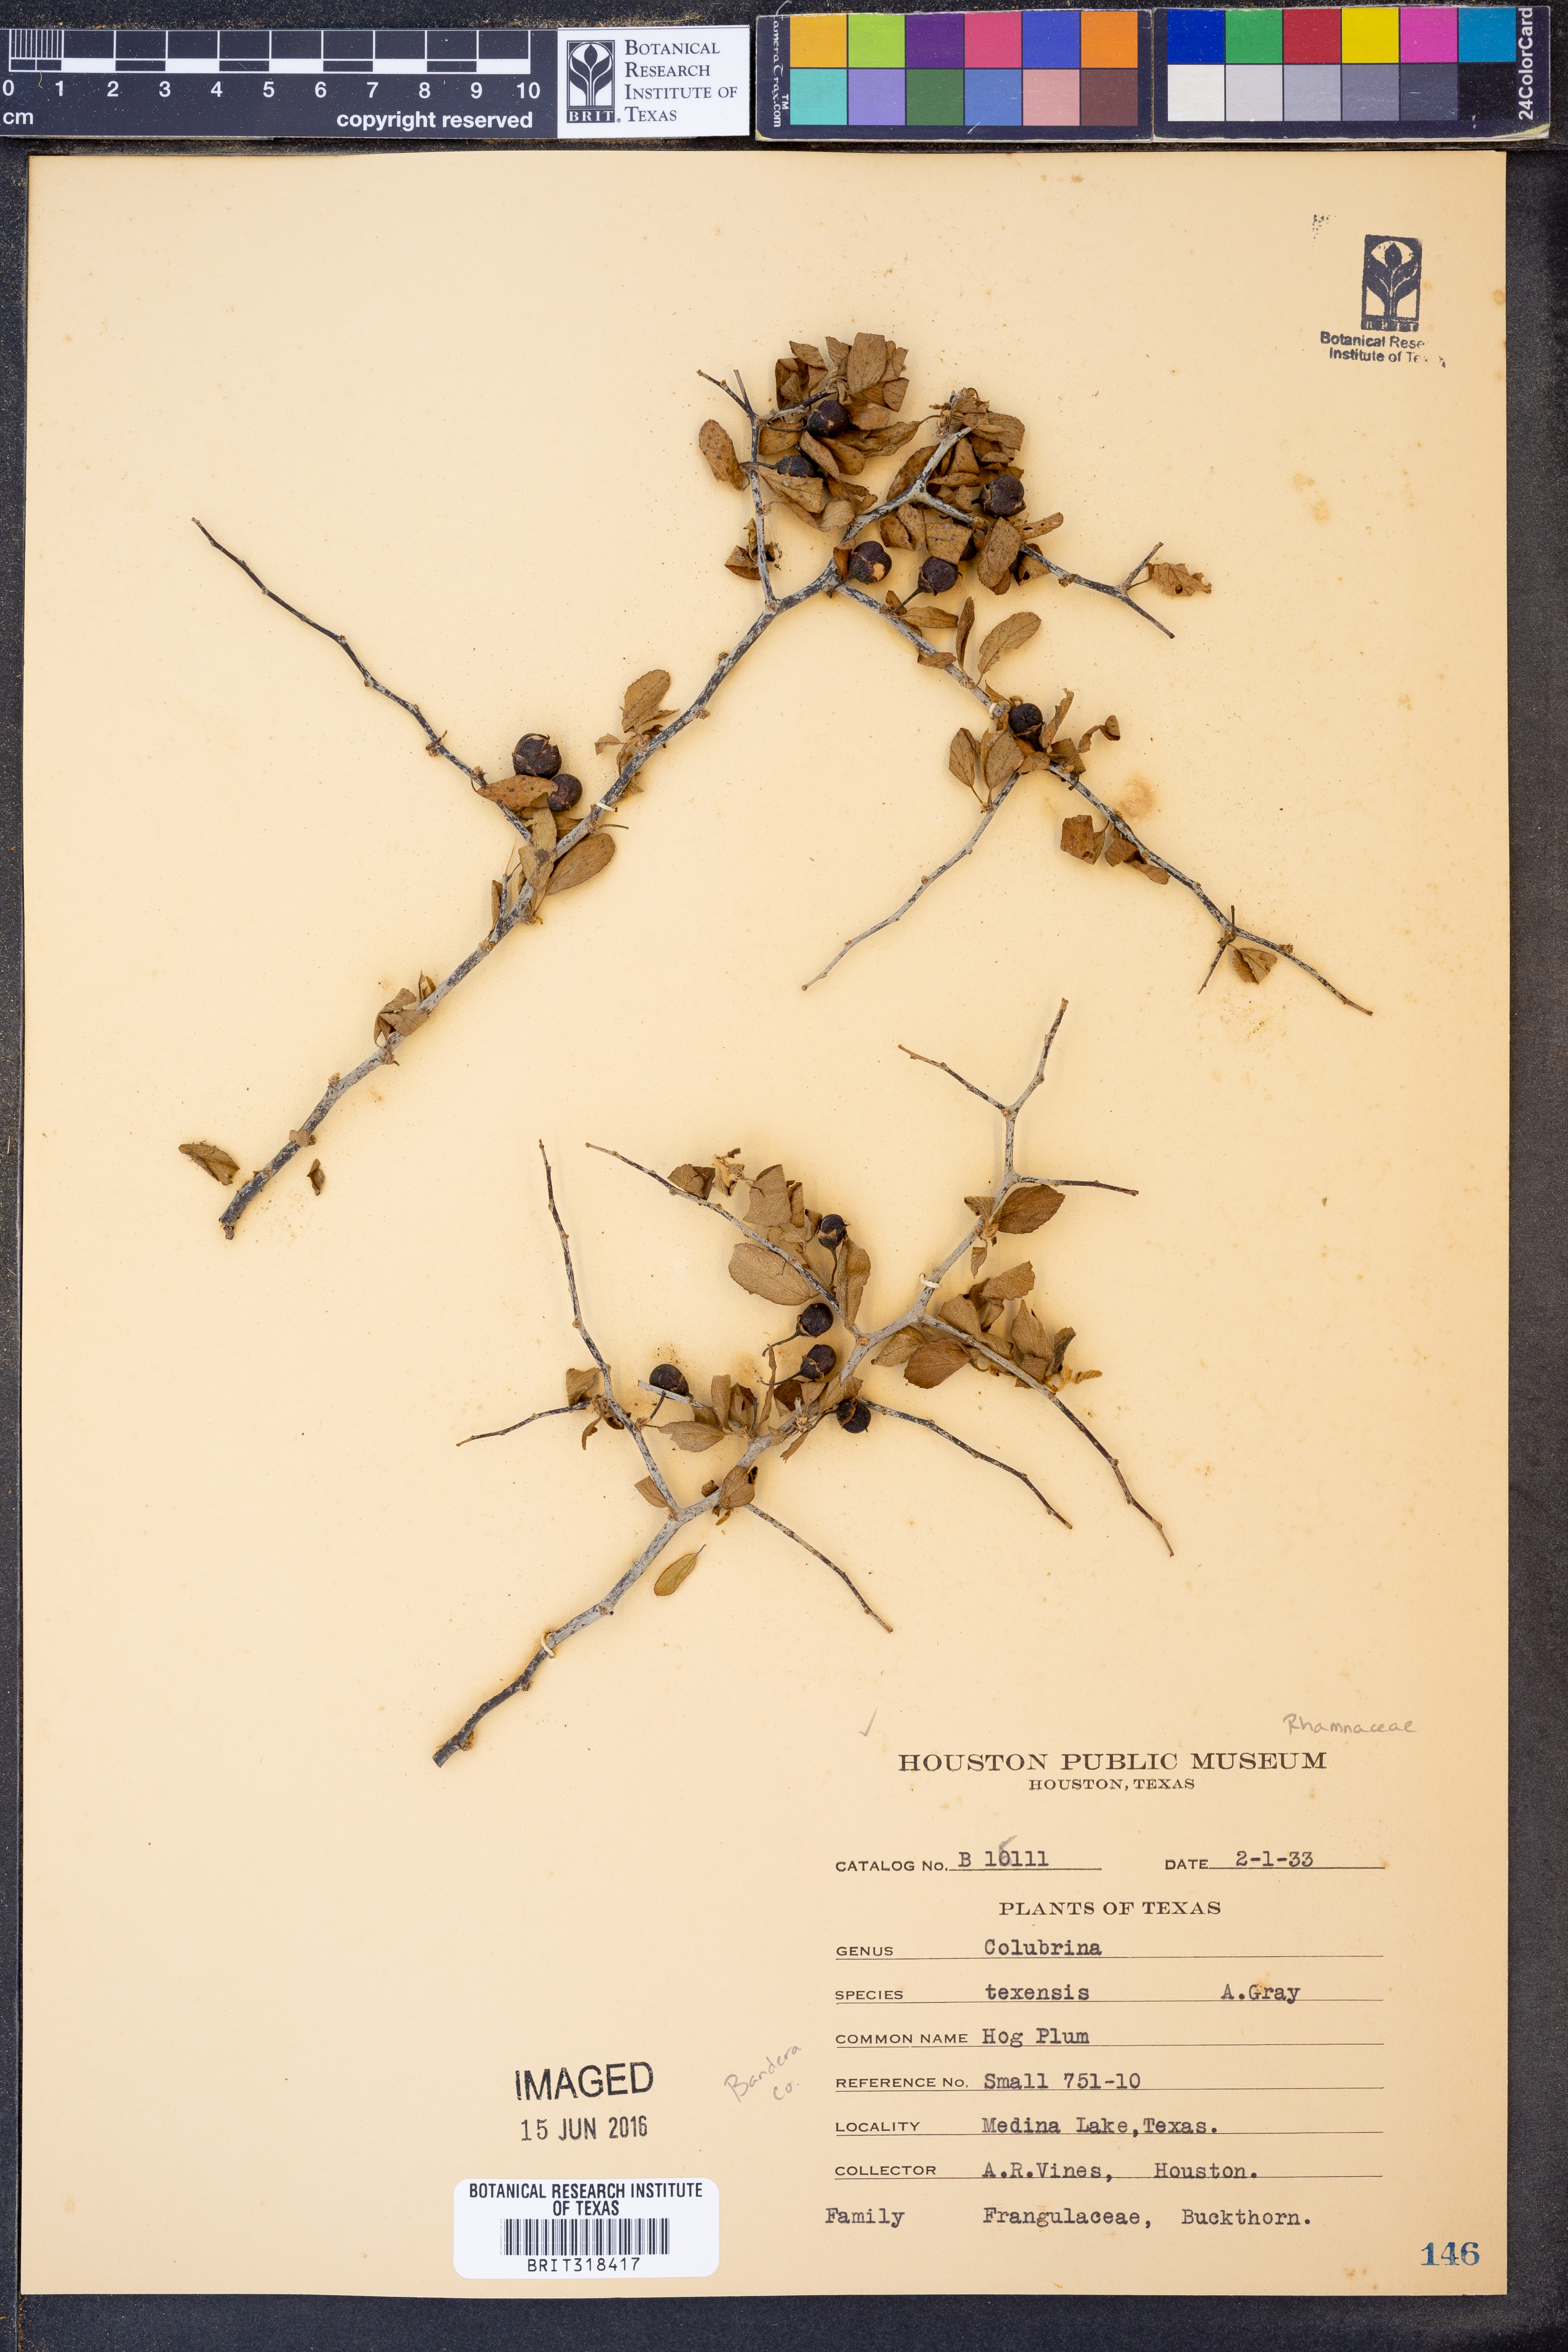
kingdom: Plantae
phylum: Tracheophyta
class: Magnoliopsida
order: Rosales
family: Rhamnaceae
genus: Colubrina
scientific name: Colubrina texensis
